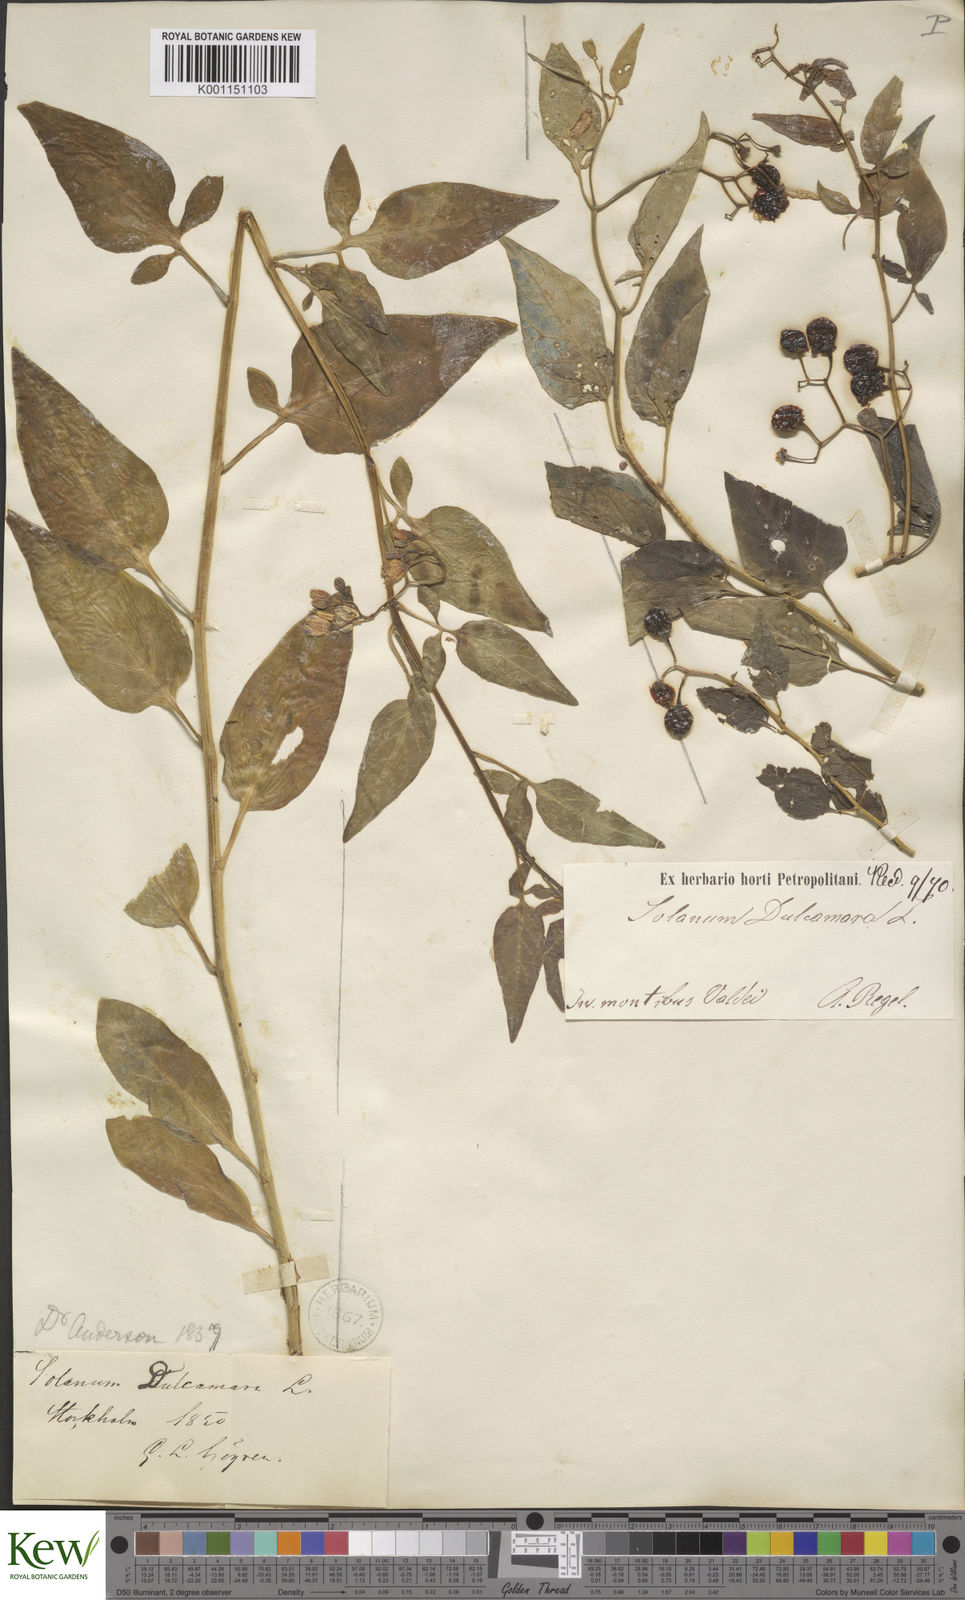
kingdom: Plantae
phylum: Tracheophyta
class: Magnoliopsida
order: Solanales
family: Solanaceae
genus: Solanum
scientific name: Solanum dulcamara
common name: Climbing nightshade
